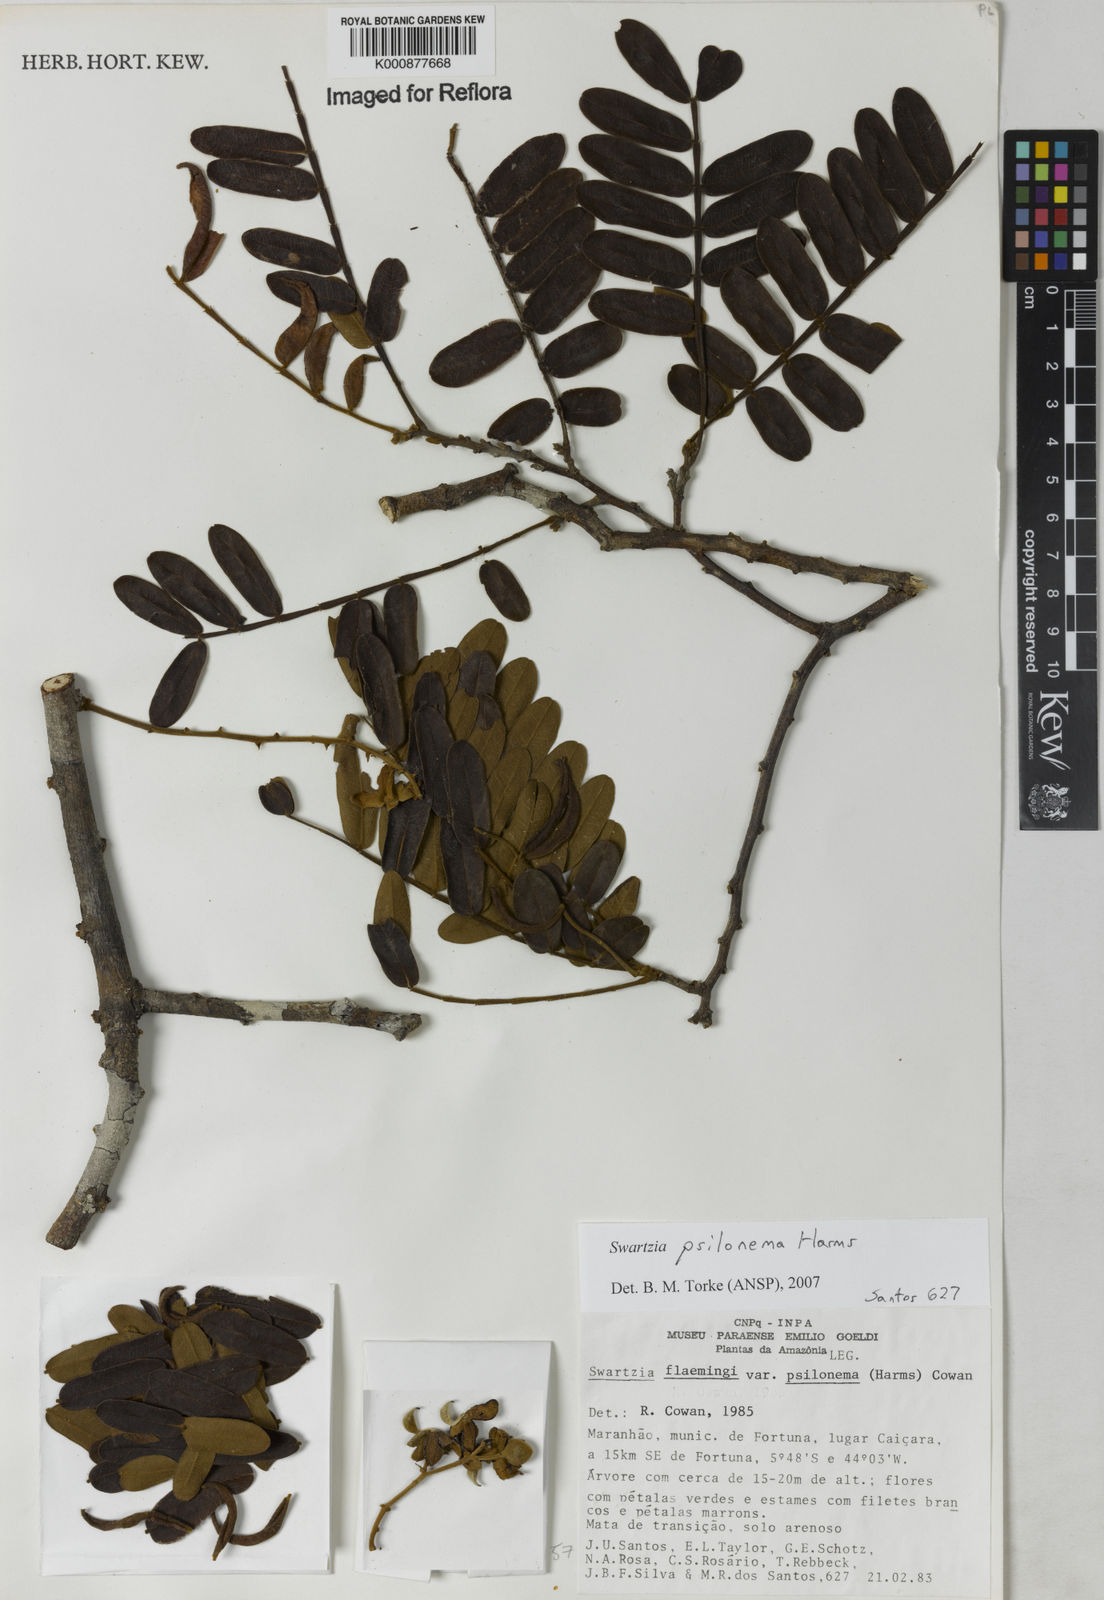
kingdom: Plantae
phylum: Tracheophyta
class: Magnoliopsida
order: Fabales
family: Fabaceae
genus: Swartzia
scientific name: Swartzia psilonema
